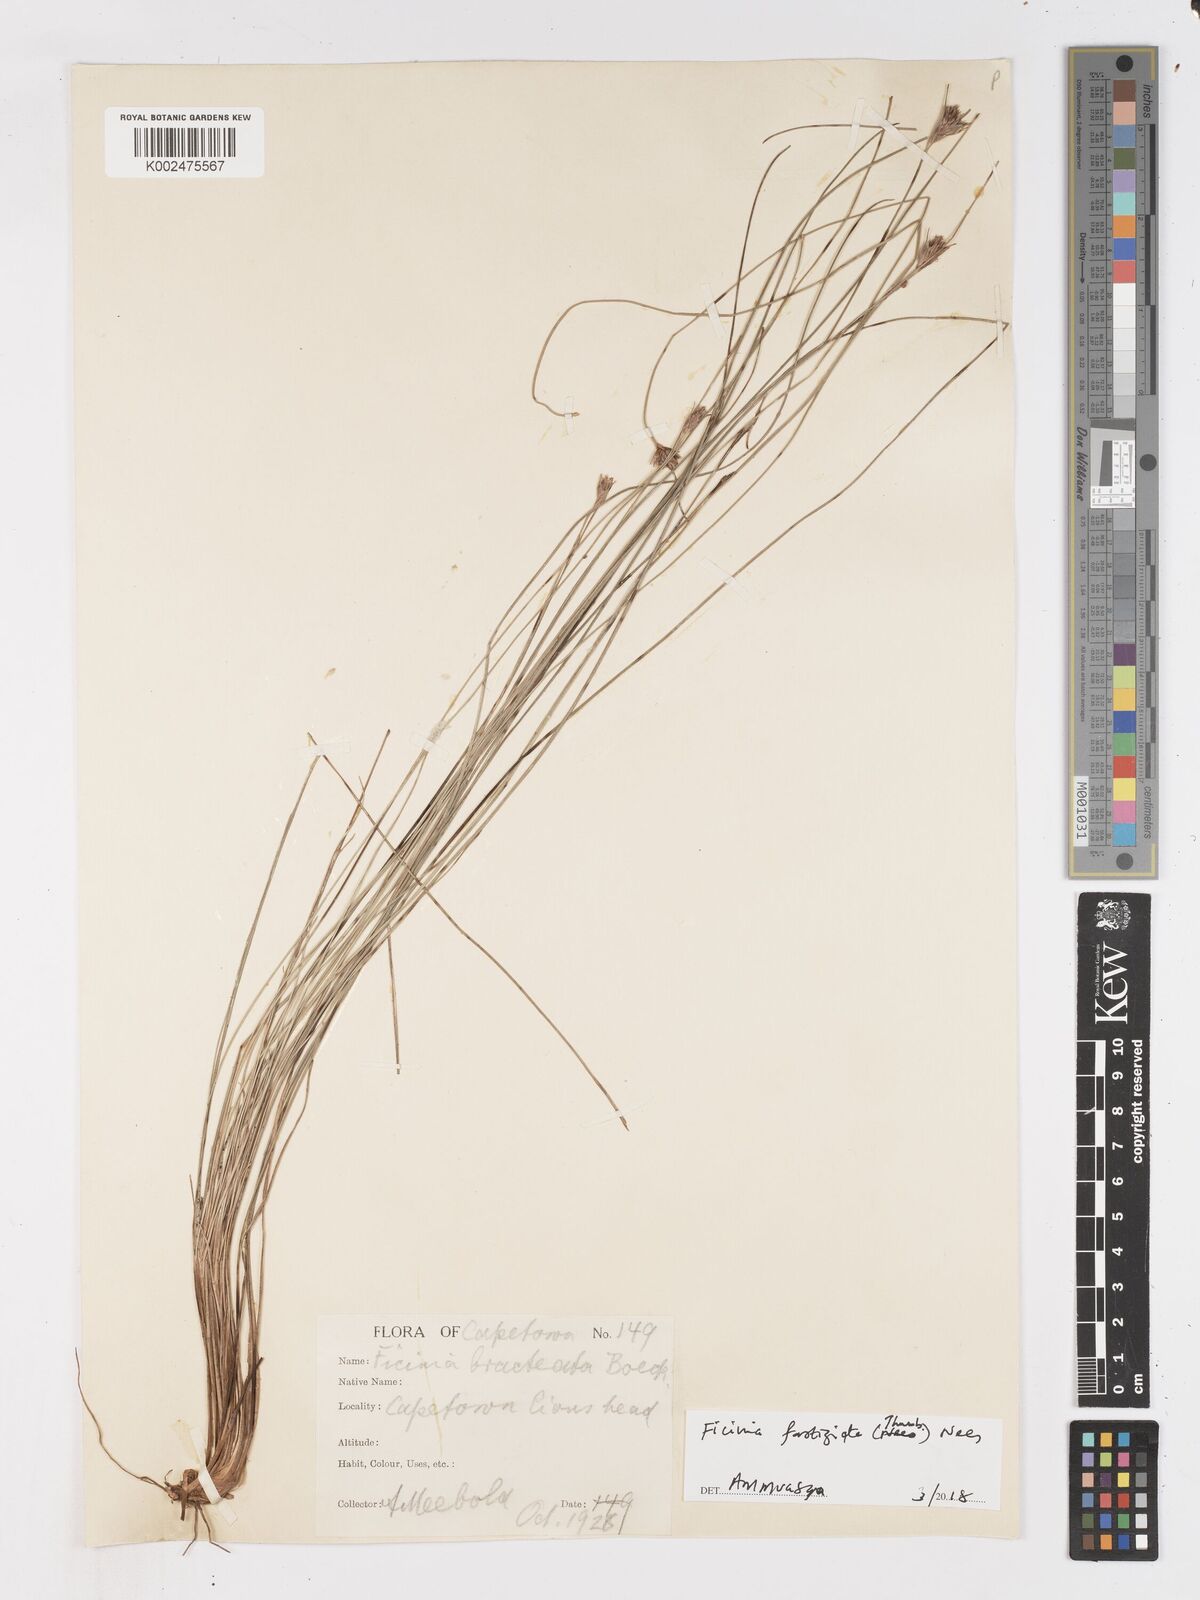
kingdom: Plantae
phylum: Tracheophyta
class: Liliopsida
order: Poales
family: Cyperaceae
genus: Ficinia
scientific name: Ficinia fastigiata
